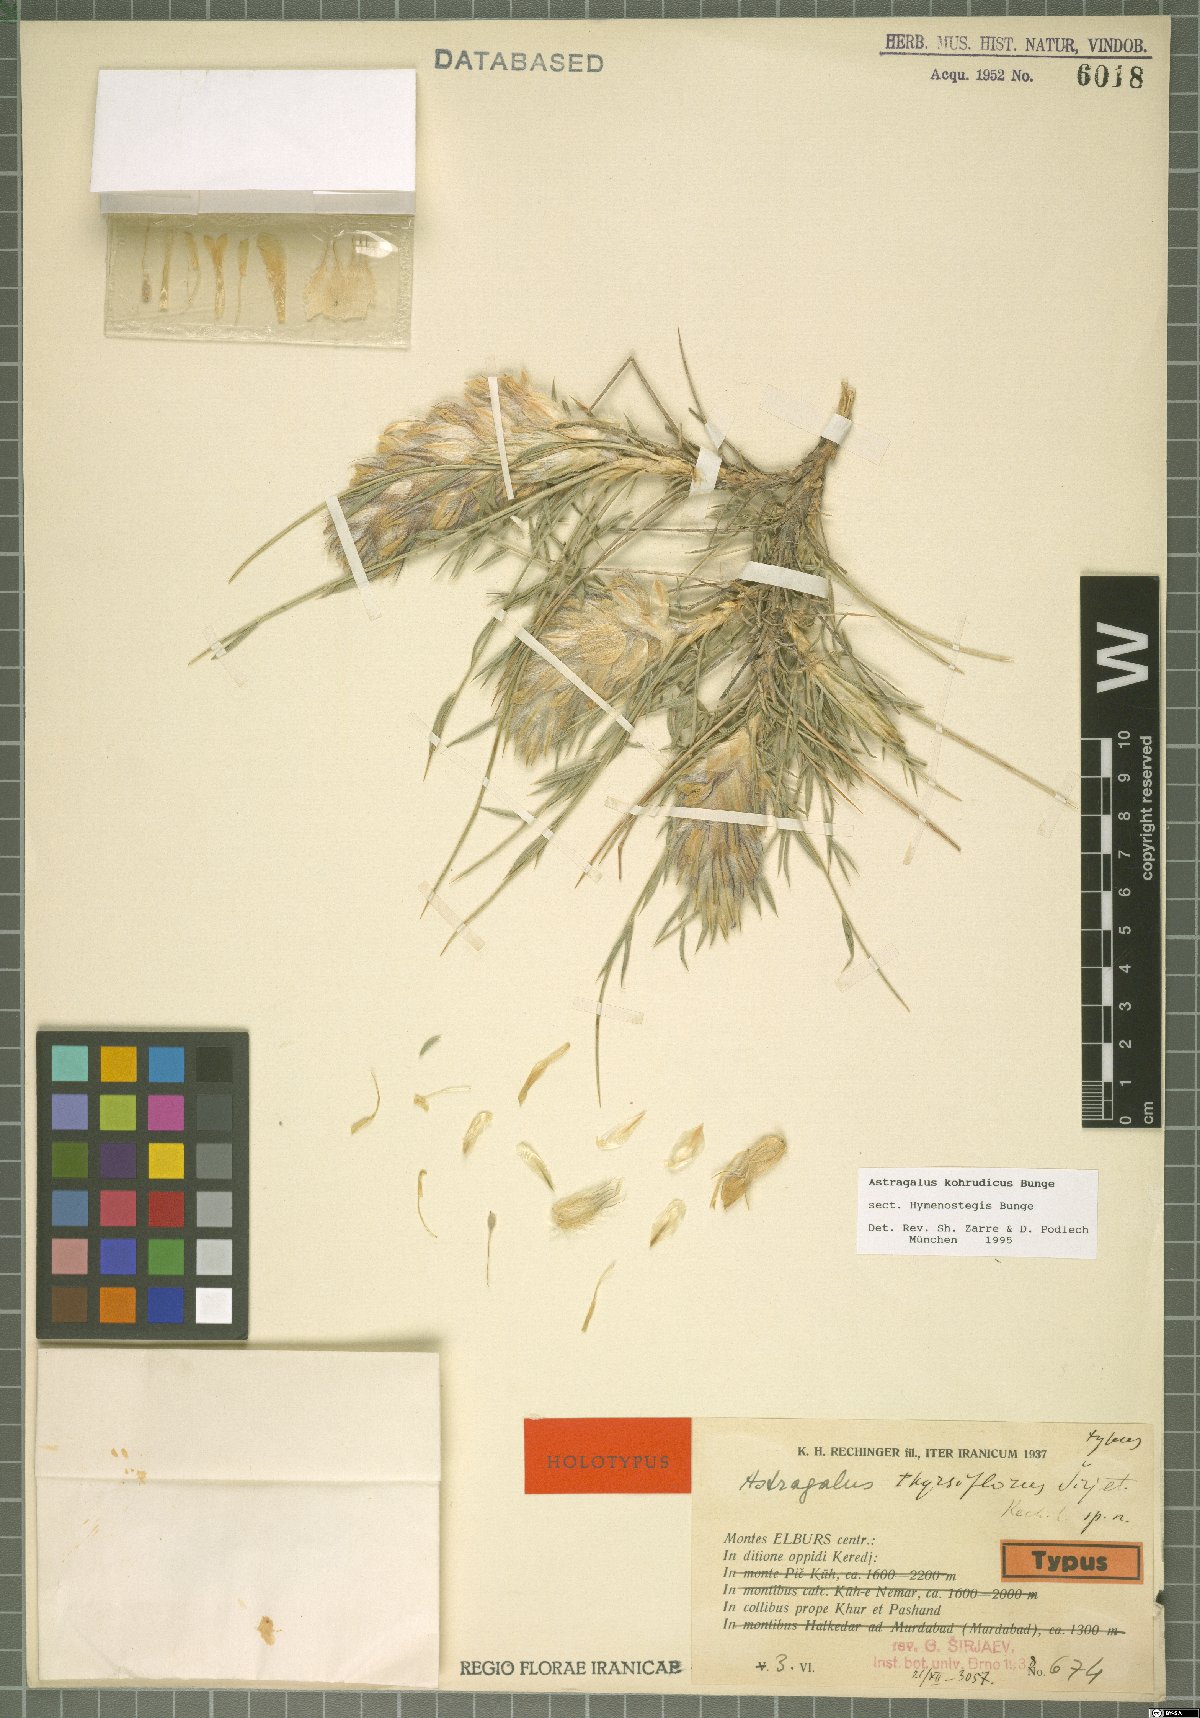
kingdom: Plantae
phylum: Tracheophyta
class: Magnoliopsida
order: Fabales
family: Fabaceae
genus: Astragalus
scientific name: Astragalus kohrudicus
